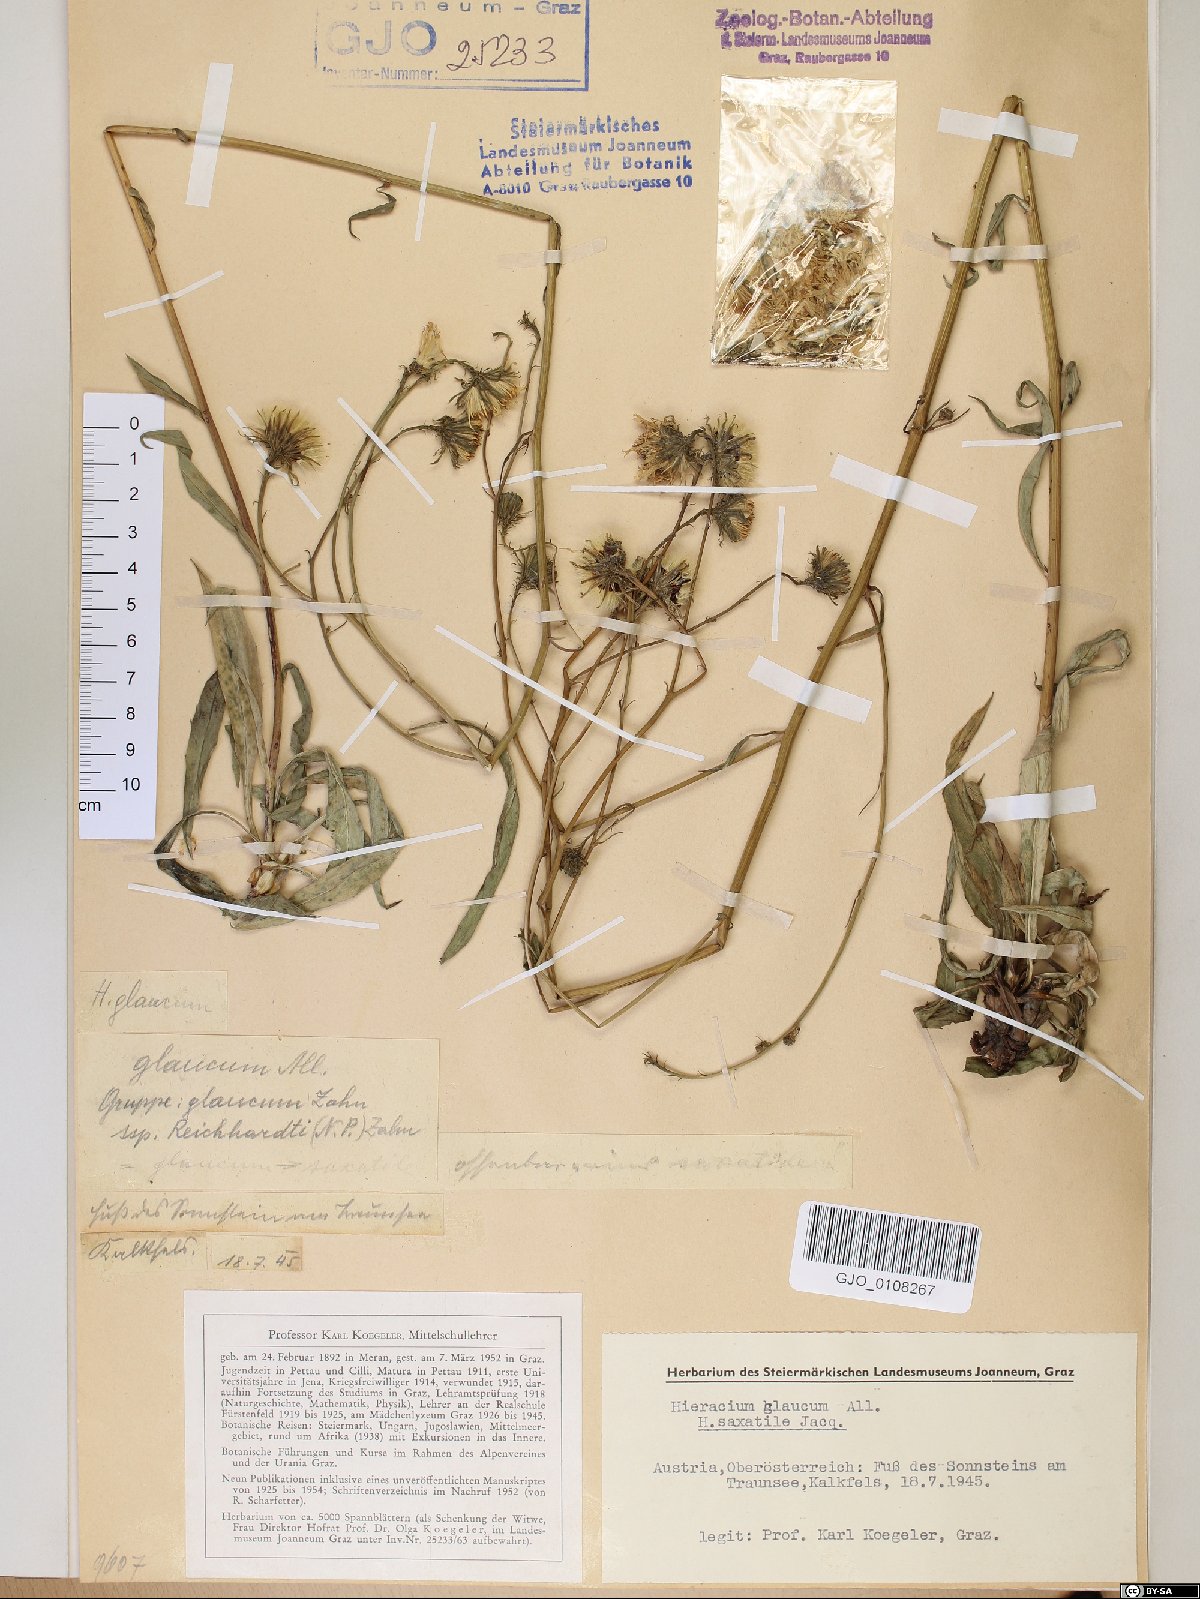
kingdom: Plantae
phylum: Tracheophyta
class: Magnoliopsida
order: Asterales
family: Asteraceae
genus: Hieracium
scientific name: Hieracium saxatile
